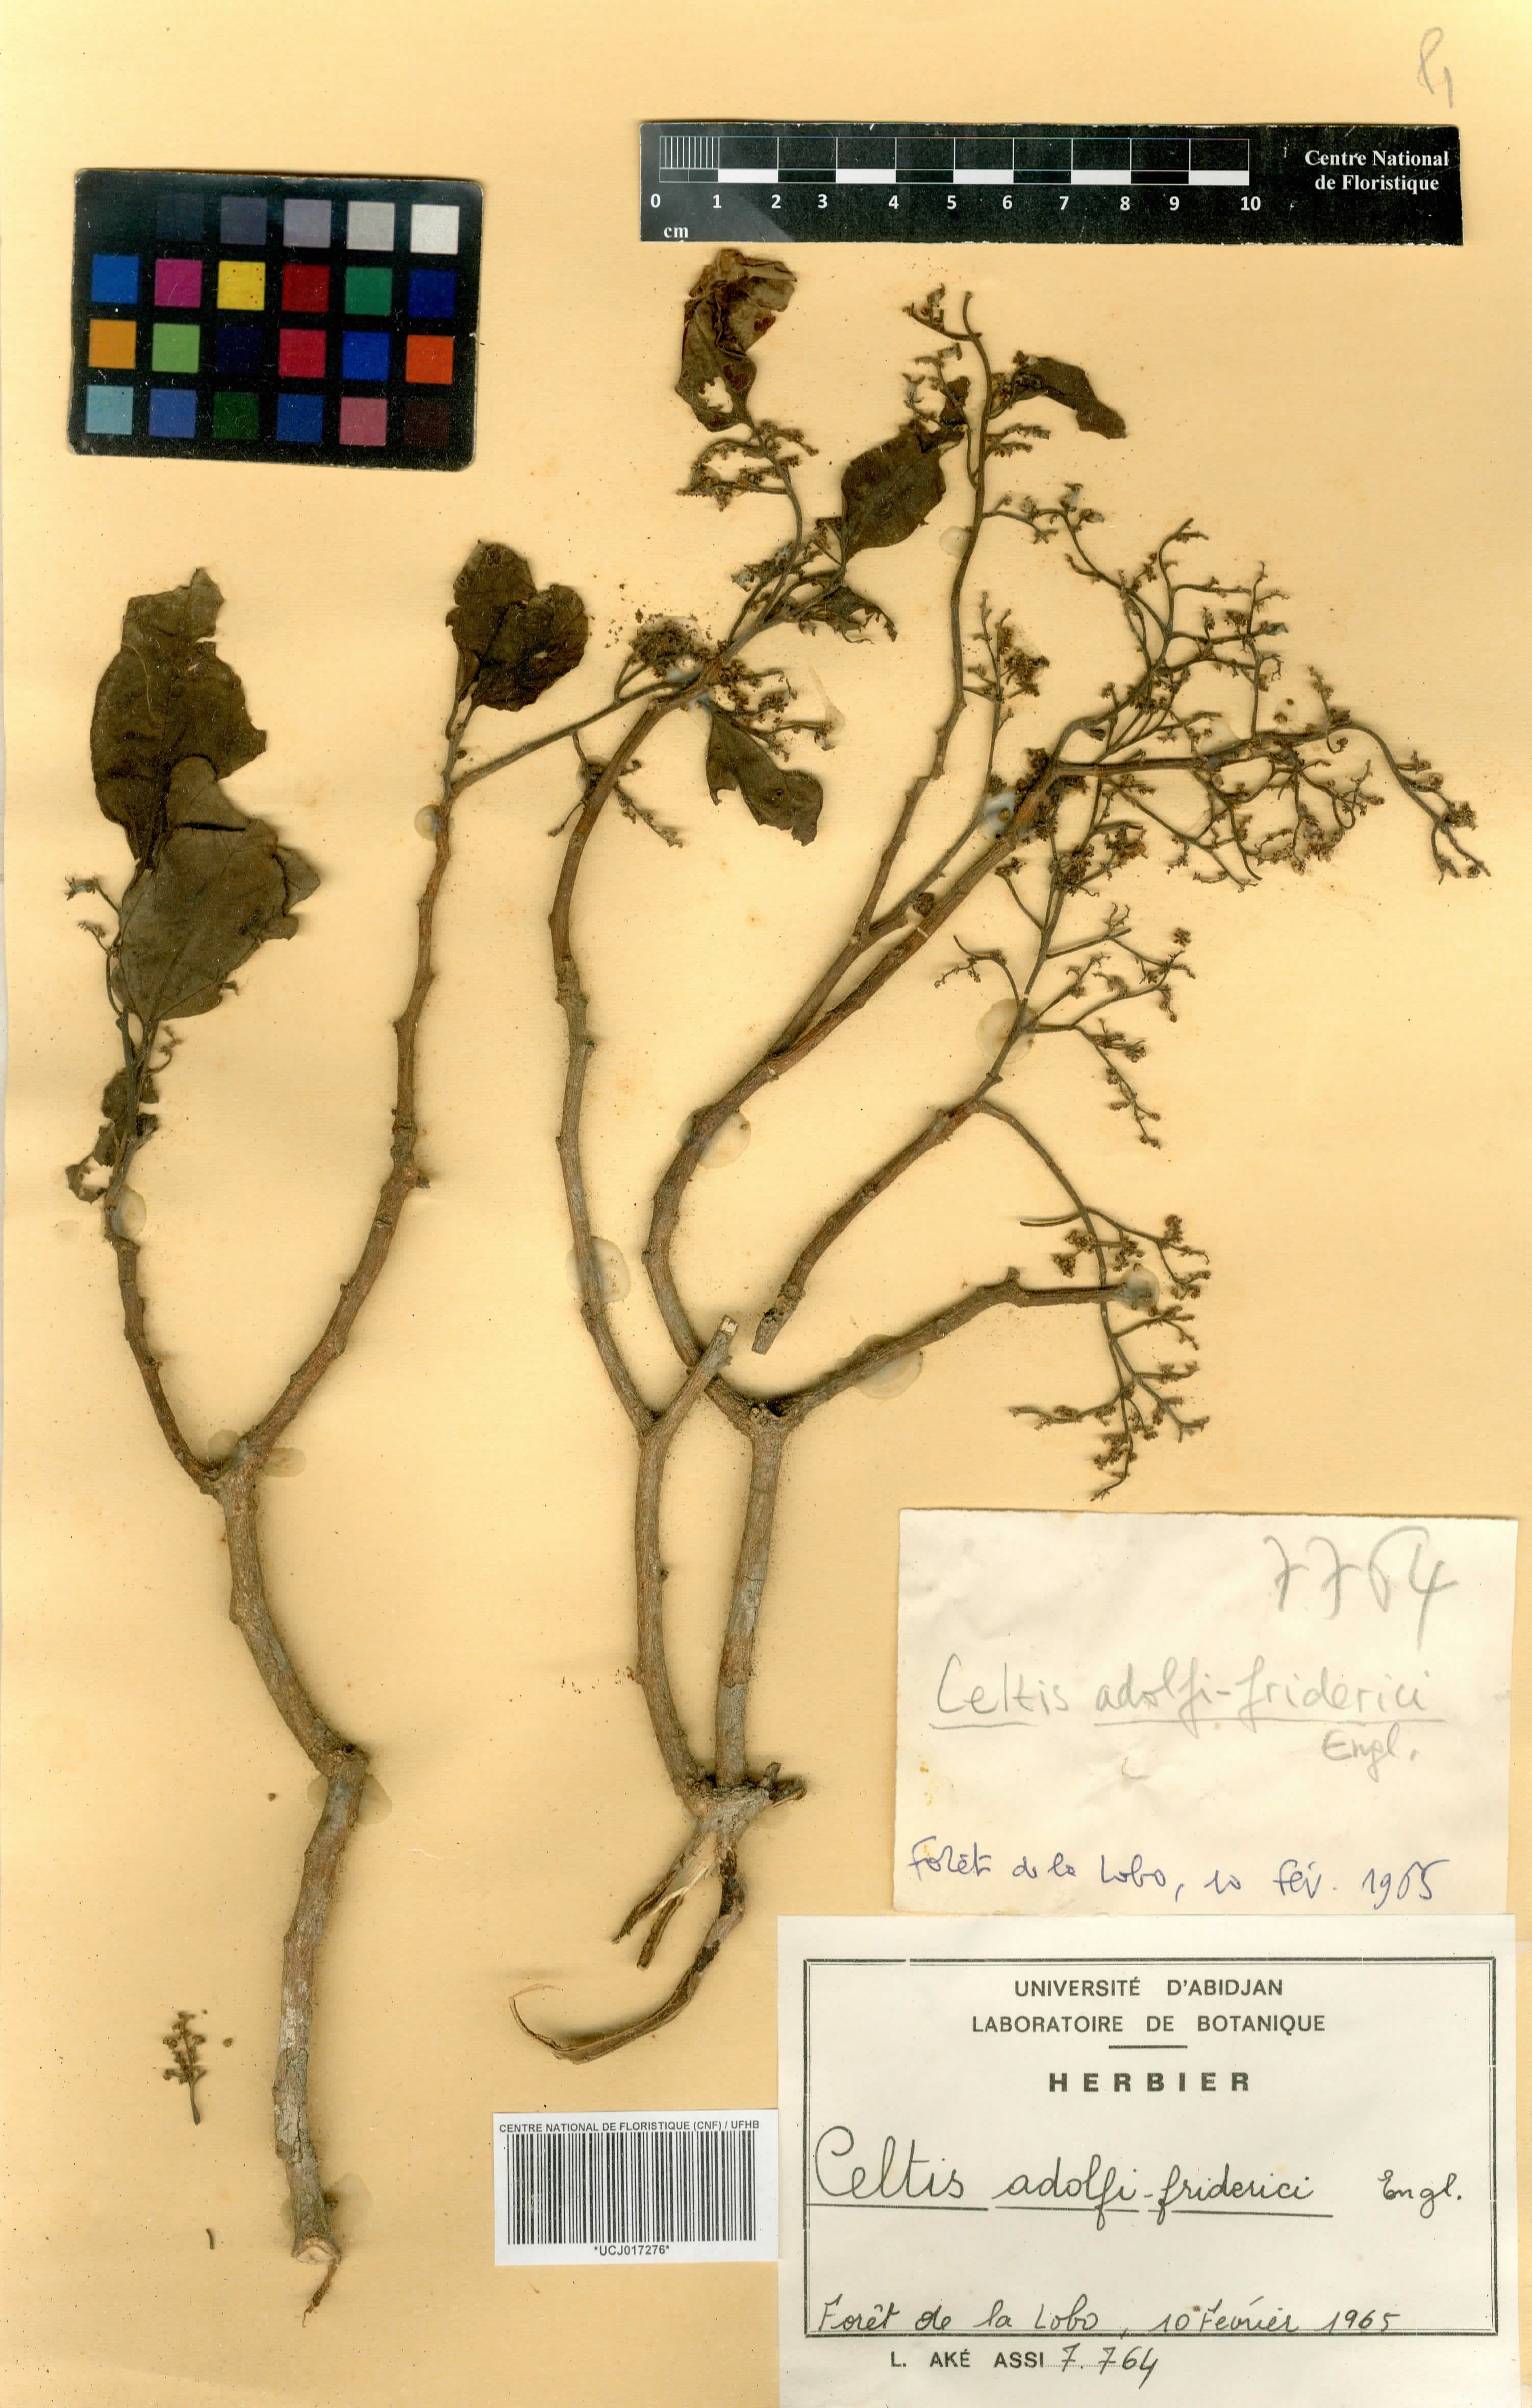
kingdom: Plantae
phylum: Tracheophyta
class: Magnoliopsida
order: Rosales
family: Cannabaceae
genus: Celtis
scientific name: Celtis adolfi-friderici
